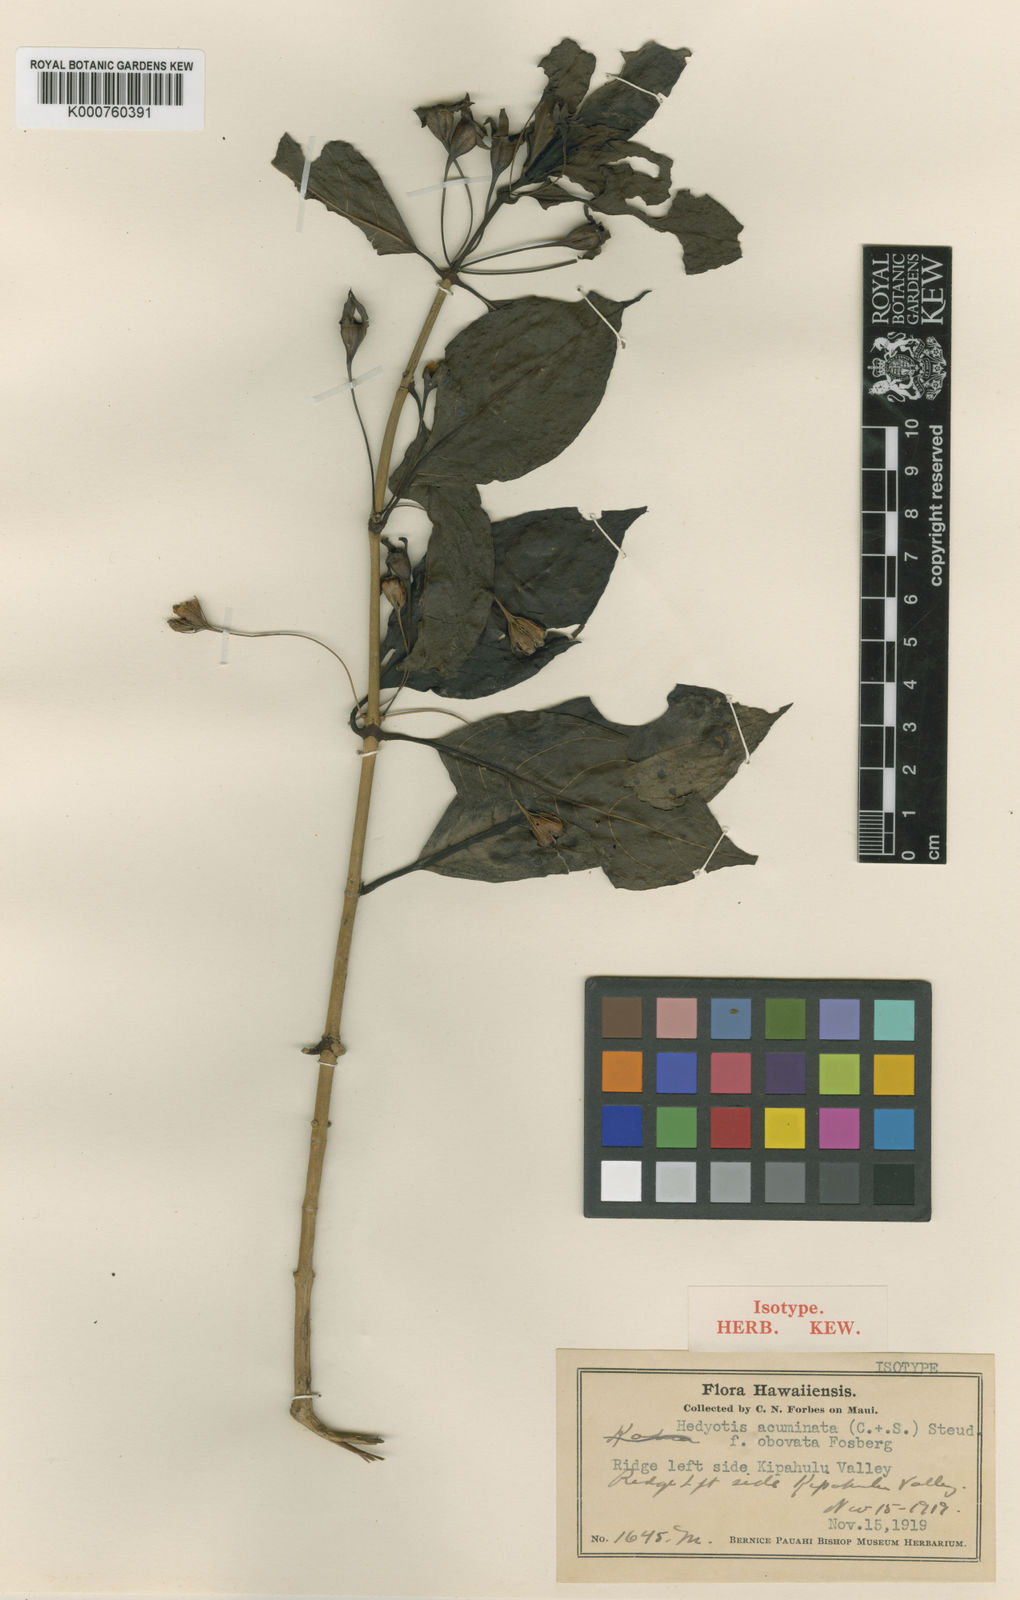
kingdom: Plantae
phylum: Tracheophyta
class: Magnoliopsida
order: Gentianales
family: Rubiaceae
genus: Kadua
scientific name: Kadua acuminata
